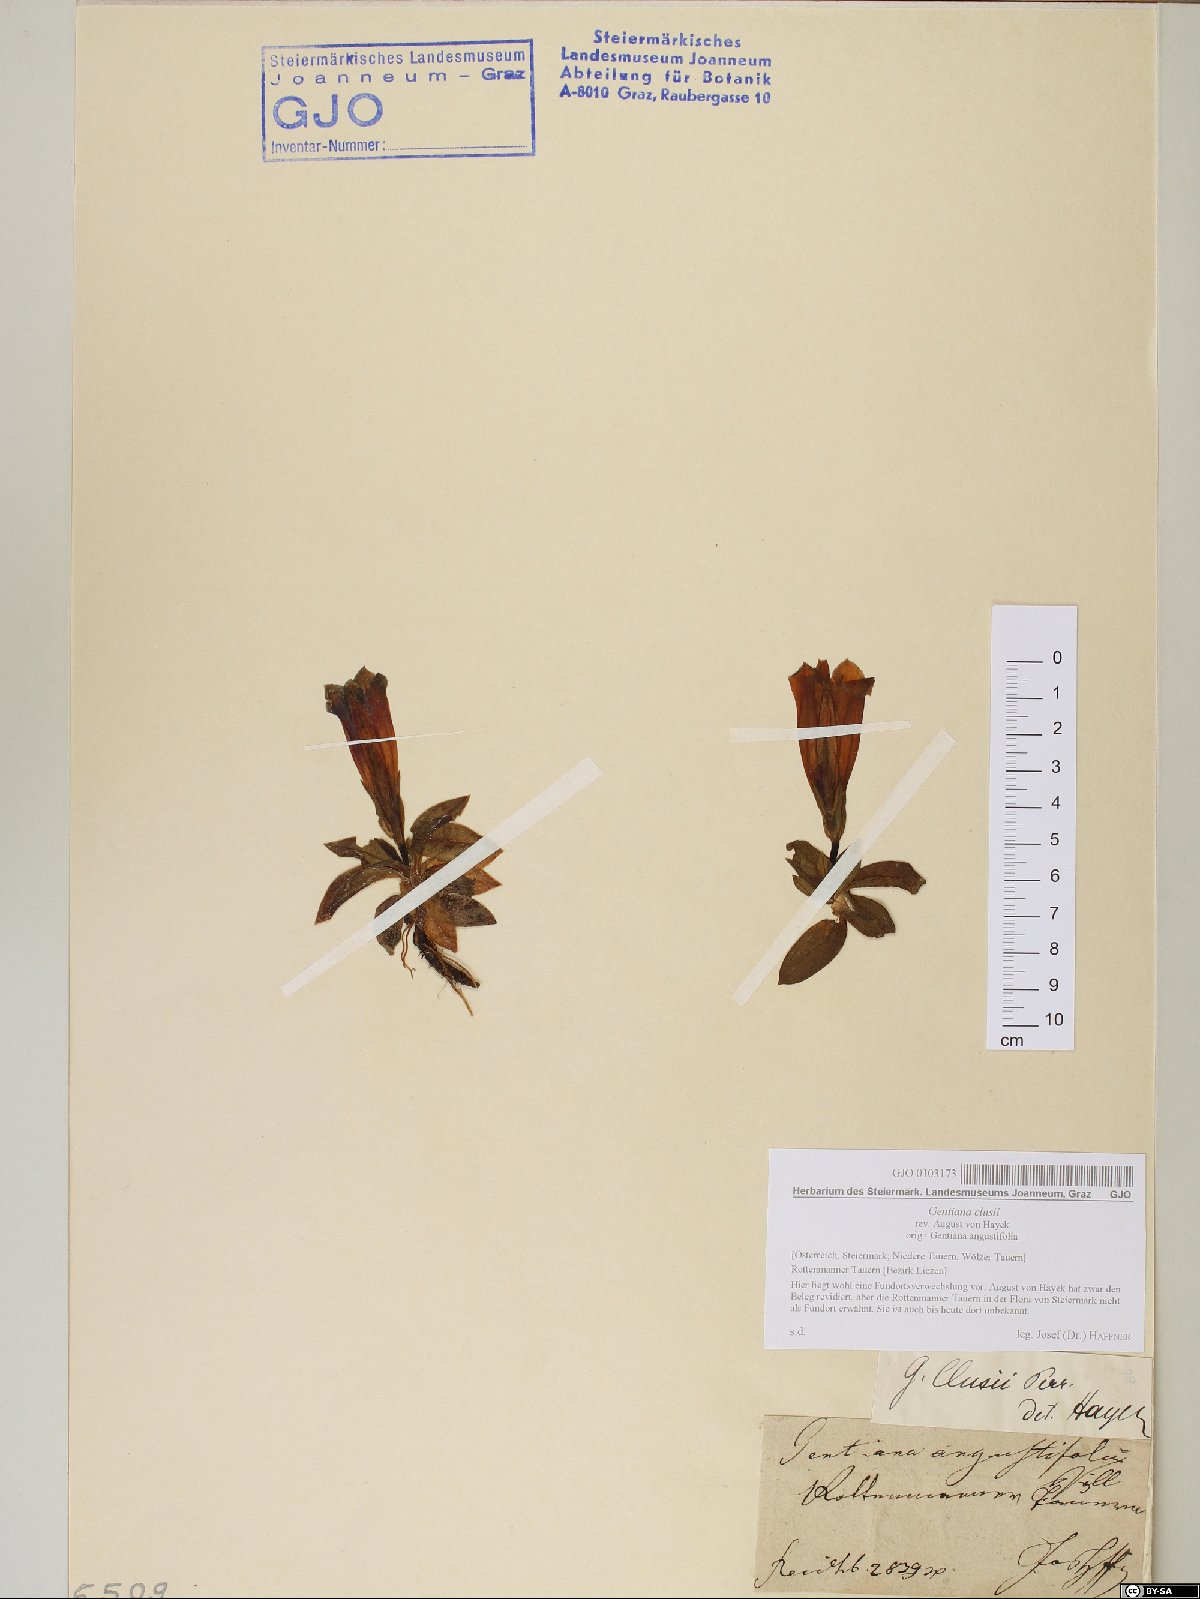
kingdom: Plantae
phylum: Tracheophyta
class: Magnoliopsida
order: Gentianales
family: Gentianaceae
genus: Gentiana
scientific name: Gentiana clusii
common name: Trumpet gentian
